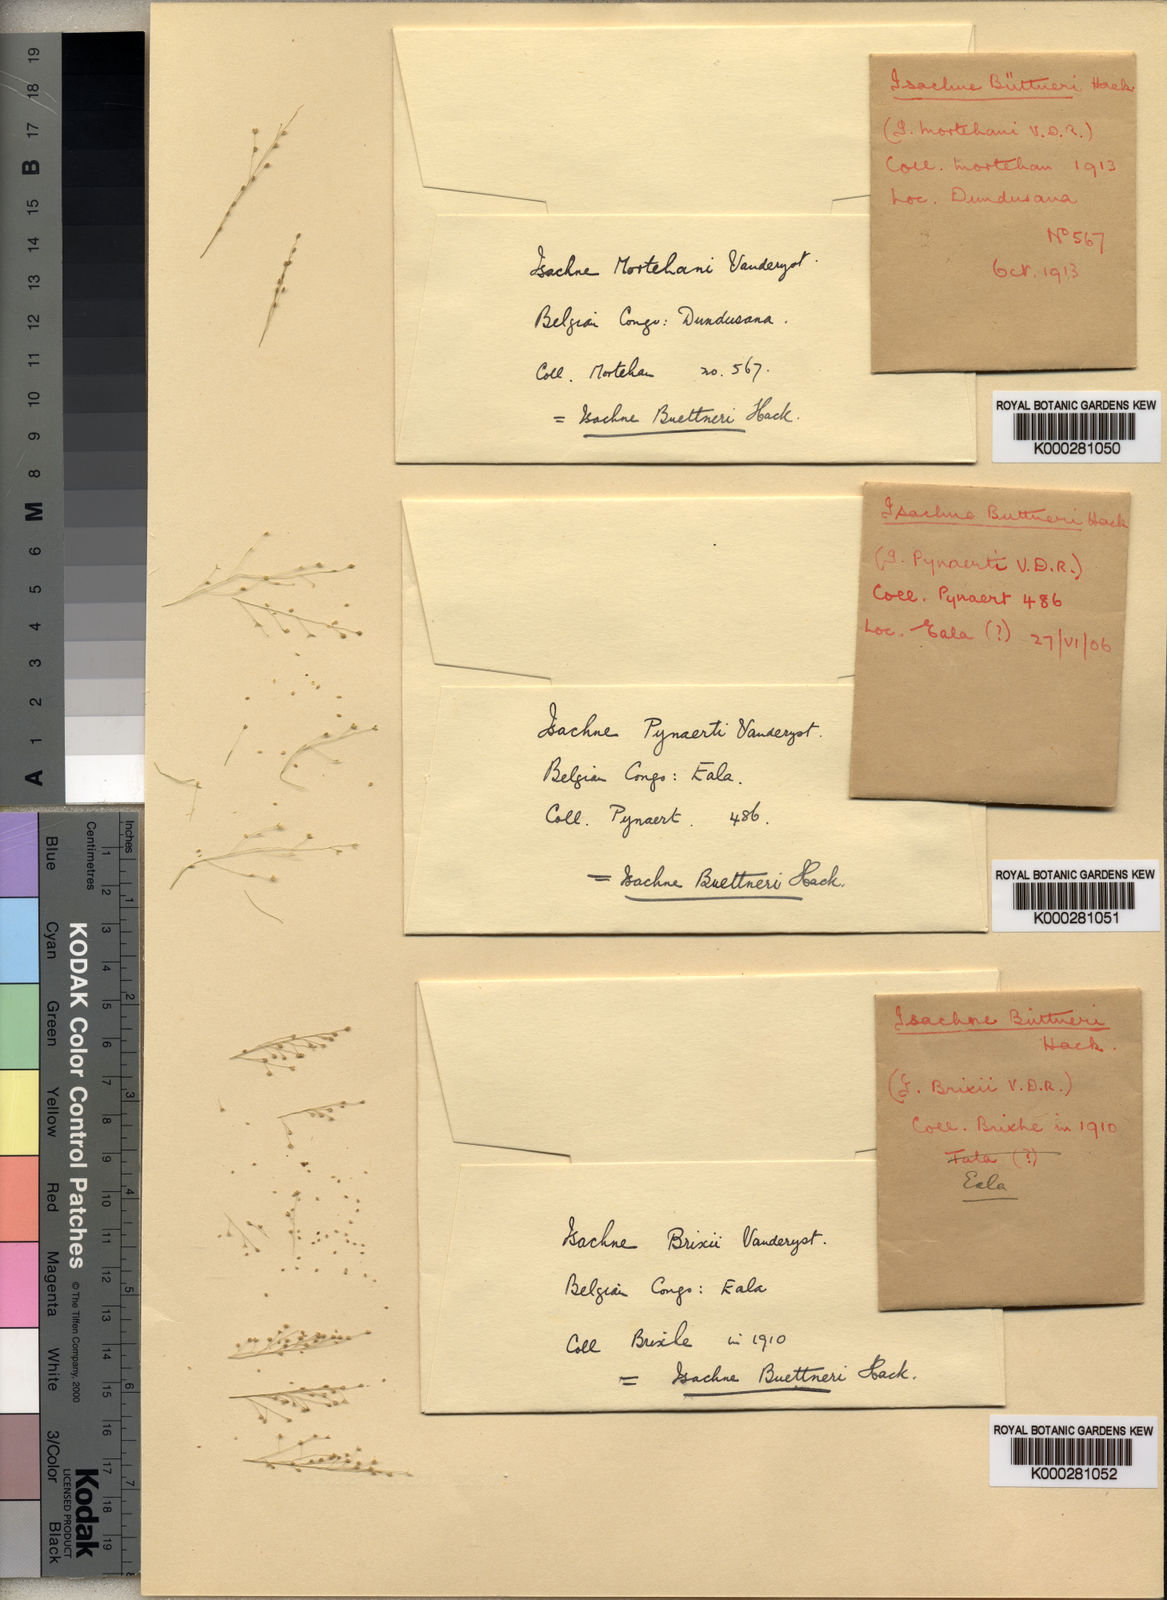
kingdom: Plantae
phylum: Tracheophyta
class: Liliopsida
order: Poales
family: Poaceae
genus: Isachne
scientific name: Isachne
